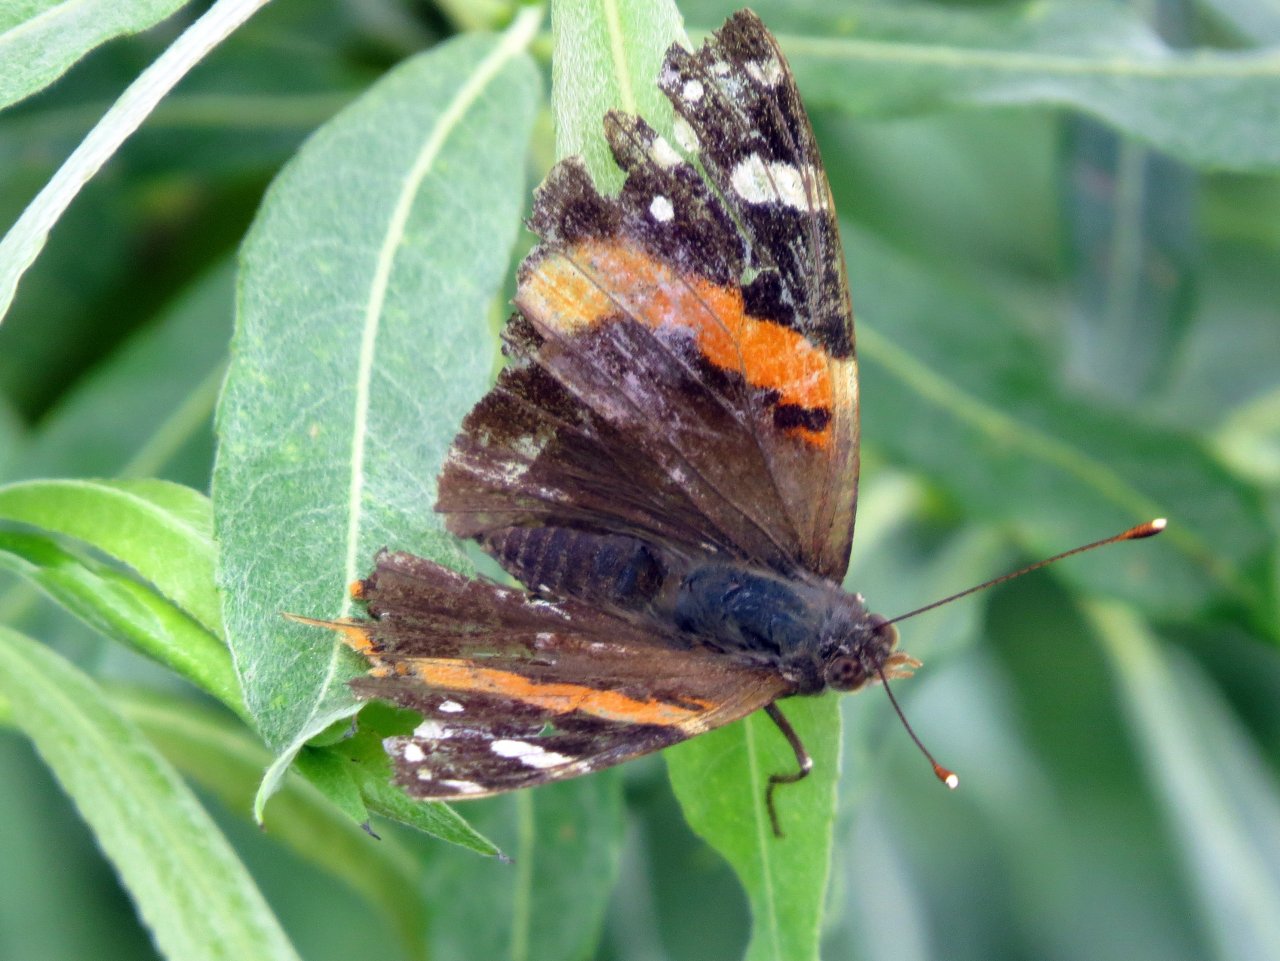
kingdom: Animalia
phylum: Arthropoda
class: Insecta
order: Lepidoptera
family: Nymphalidae
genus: Vanessa
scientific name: Vanessa atalanta
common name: Red Admiral
